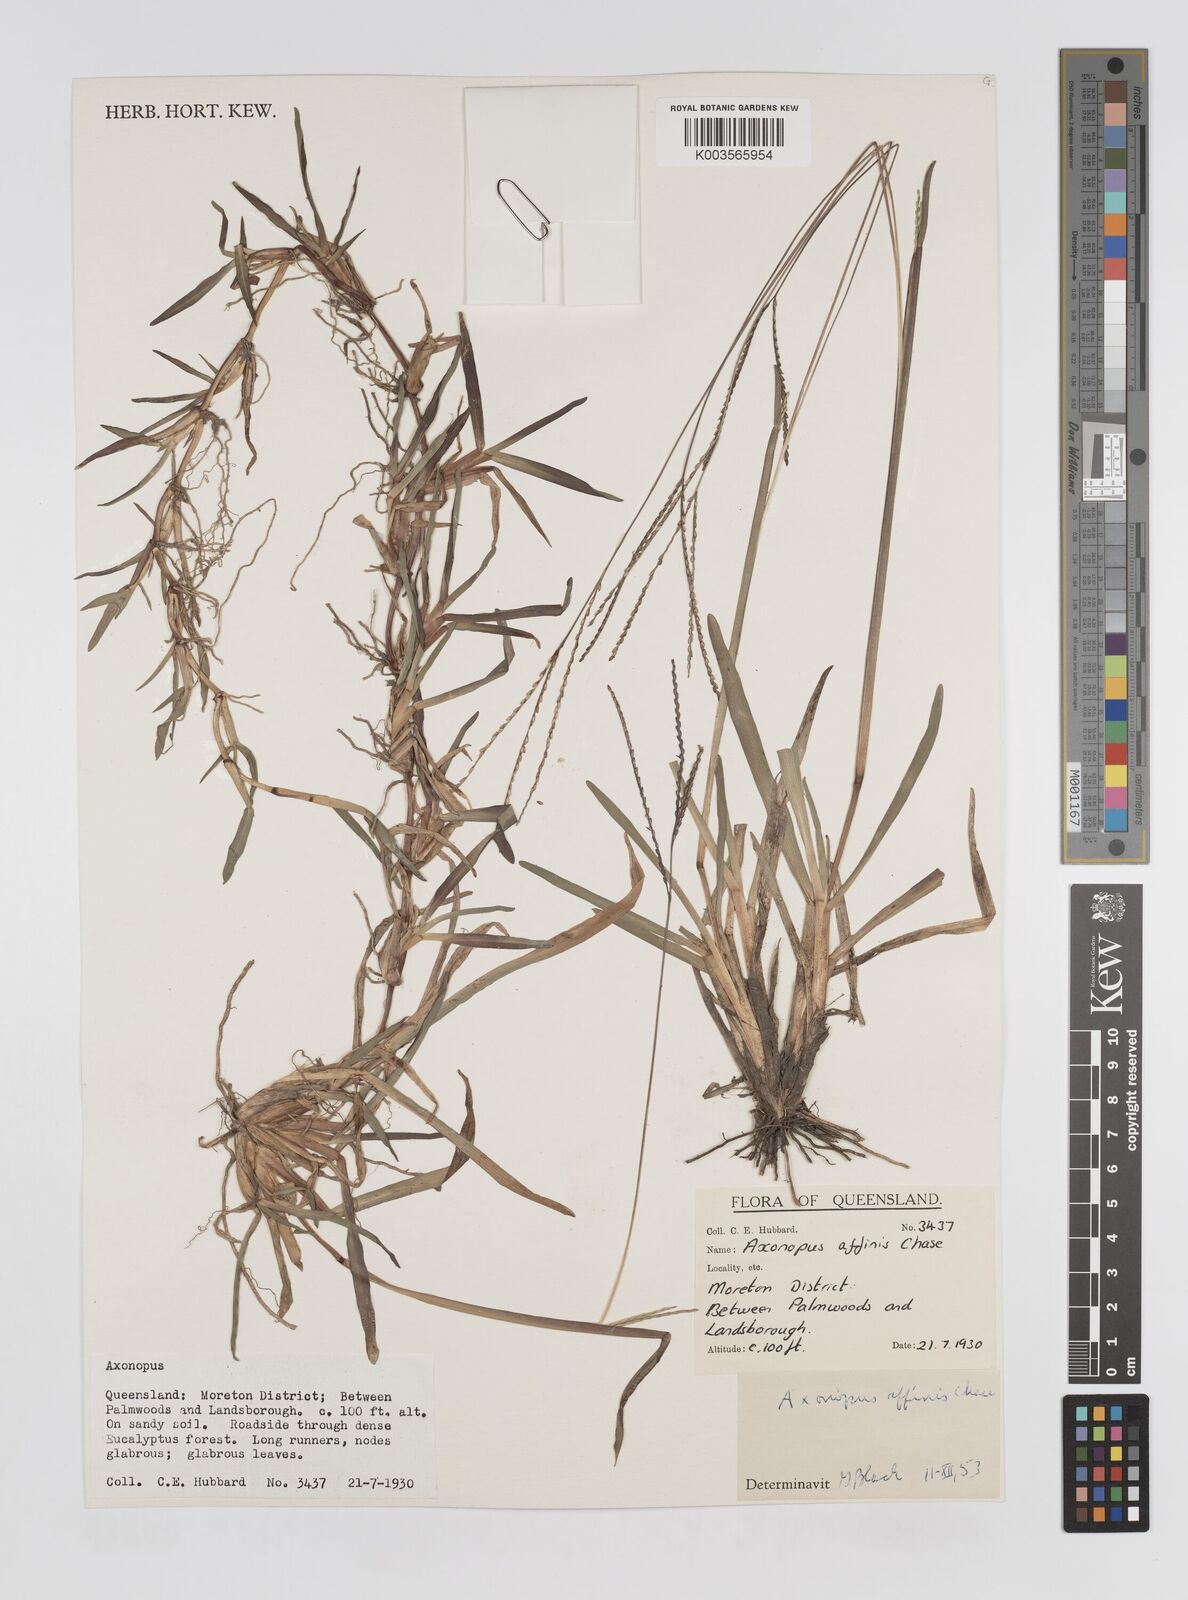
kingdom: Plantae
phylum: Tracheophyta
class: Liliopsida
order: Poales
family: Poaceae
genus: Axonopus
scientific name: Axonopus fissifolius
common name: Common carpetgrass
